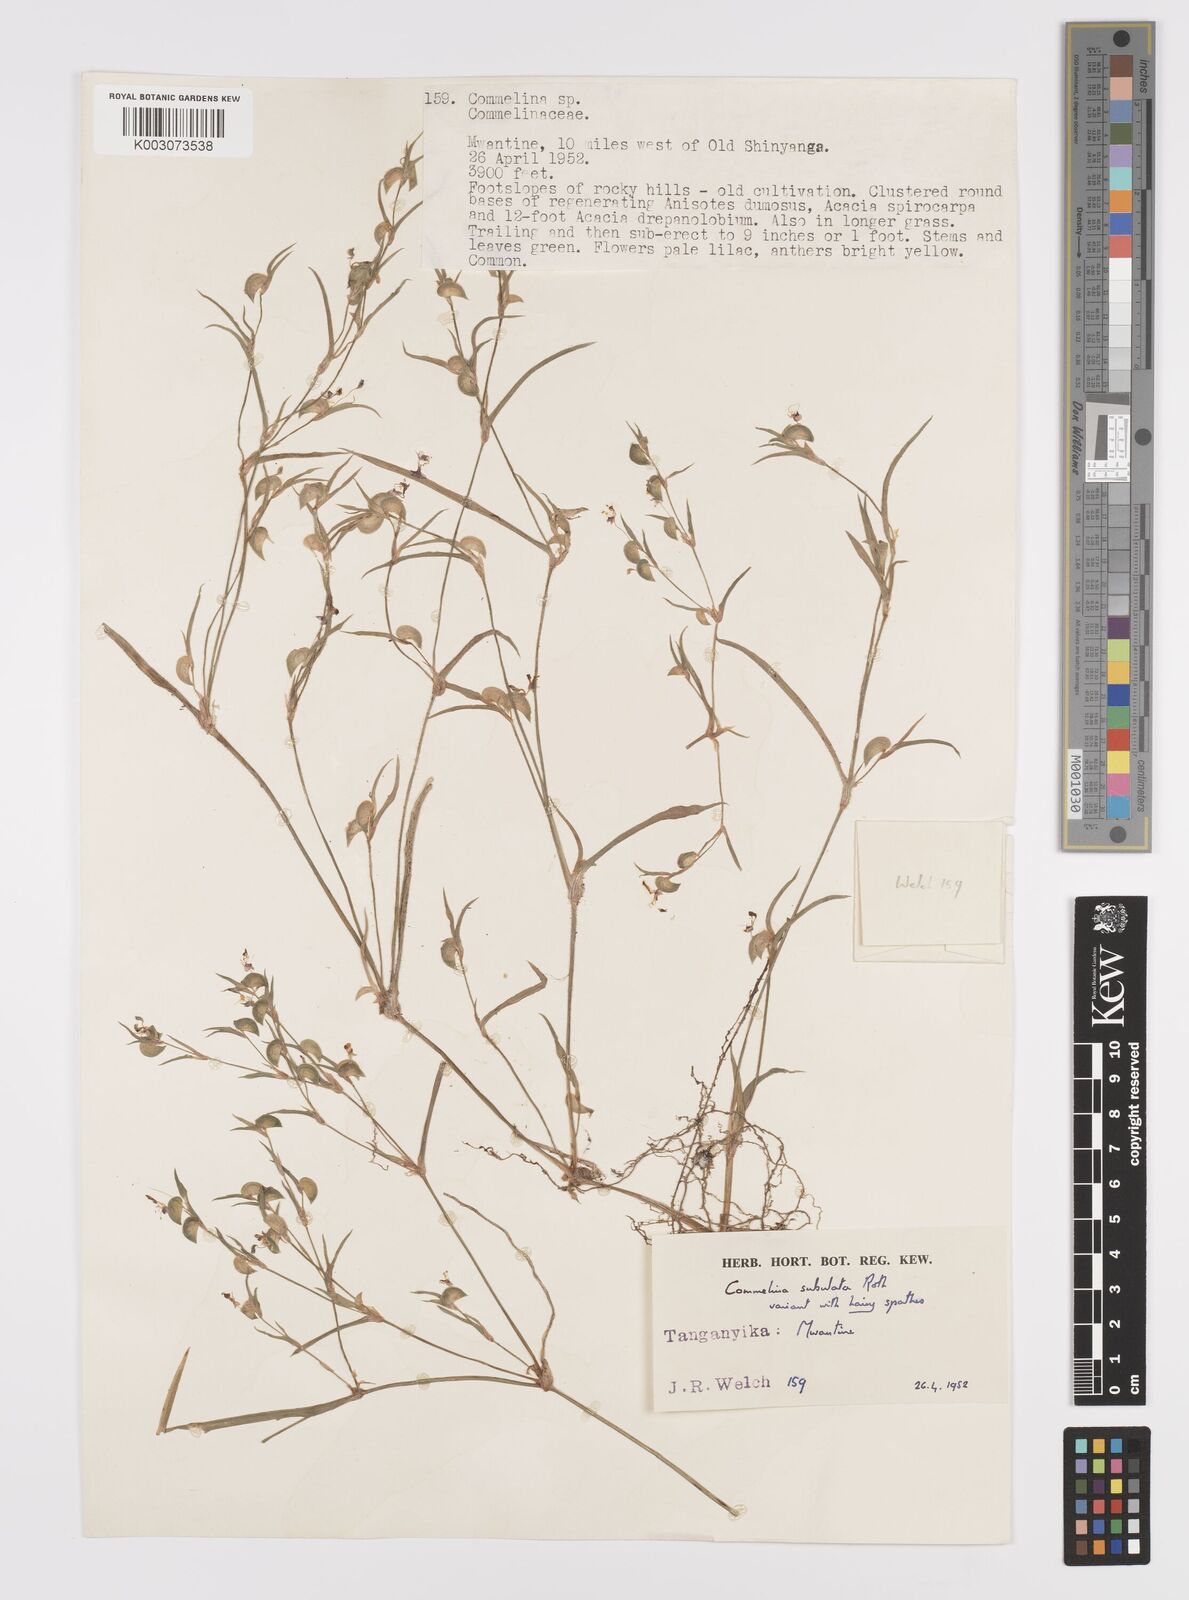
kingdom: Plantae
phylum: Tracheophyta
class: Liliopsida
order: Commelinales
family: Commelinaceae
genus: Commelina
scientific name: Commelina subulata
